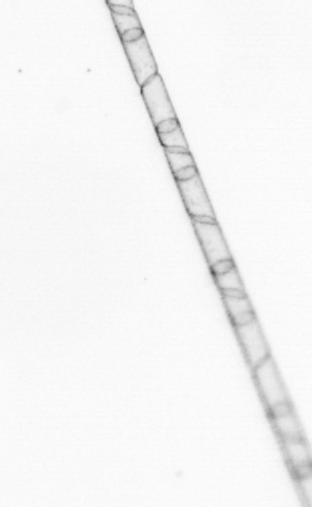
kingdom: Chromista
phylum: Ochrophyta
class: Bacillariophyceae
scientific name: Bacillariophyceae
